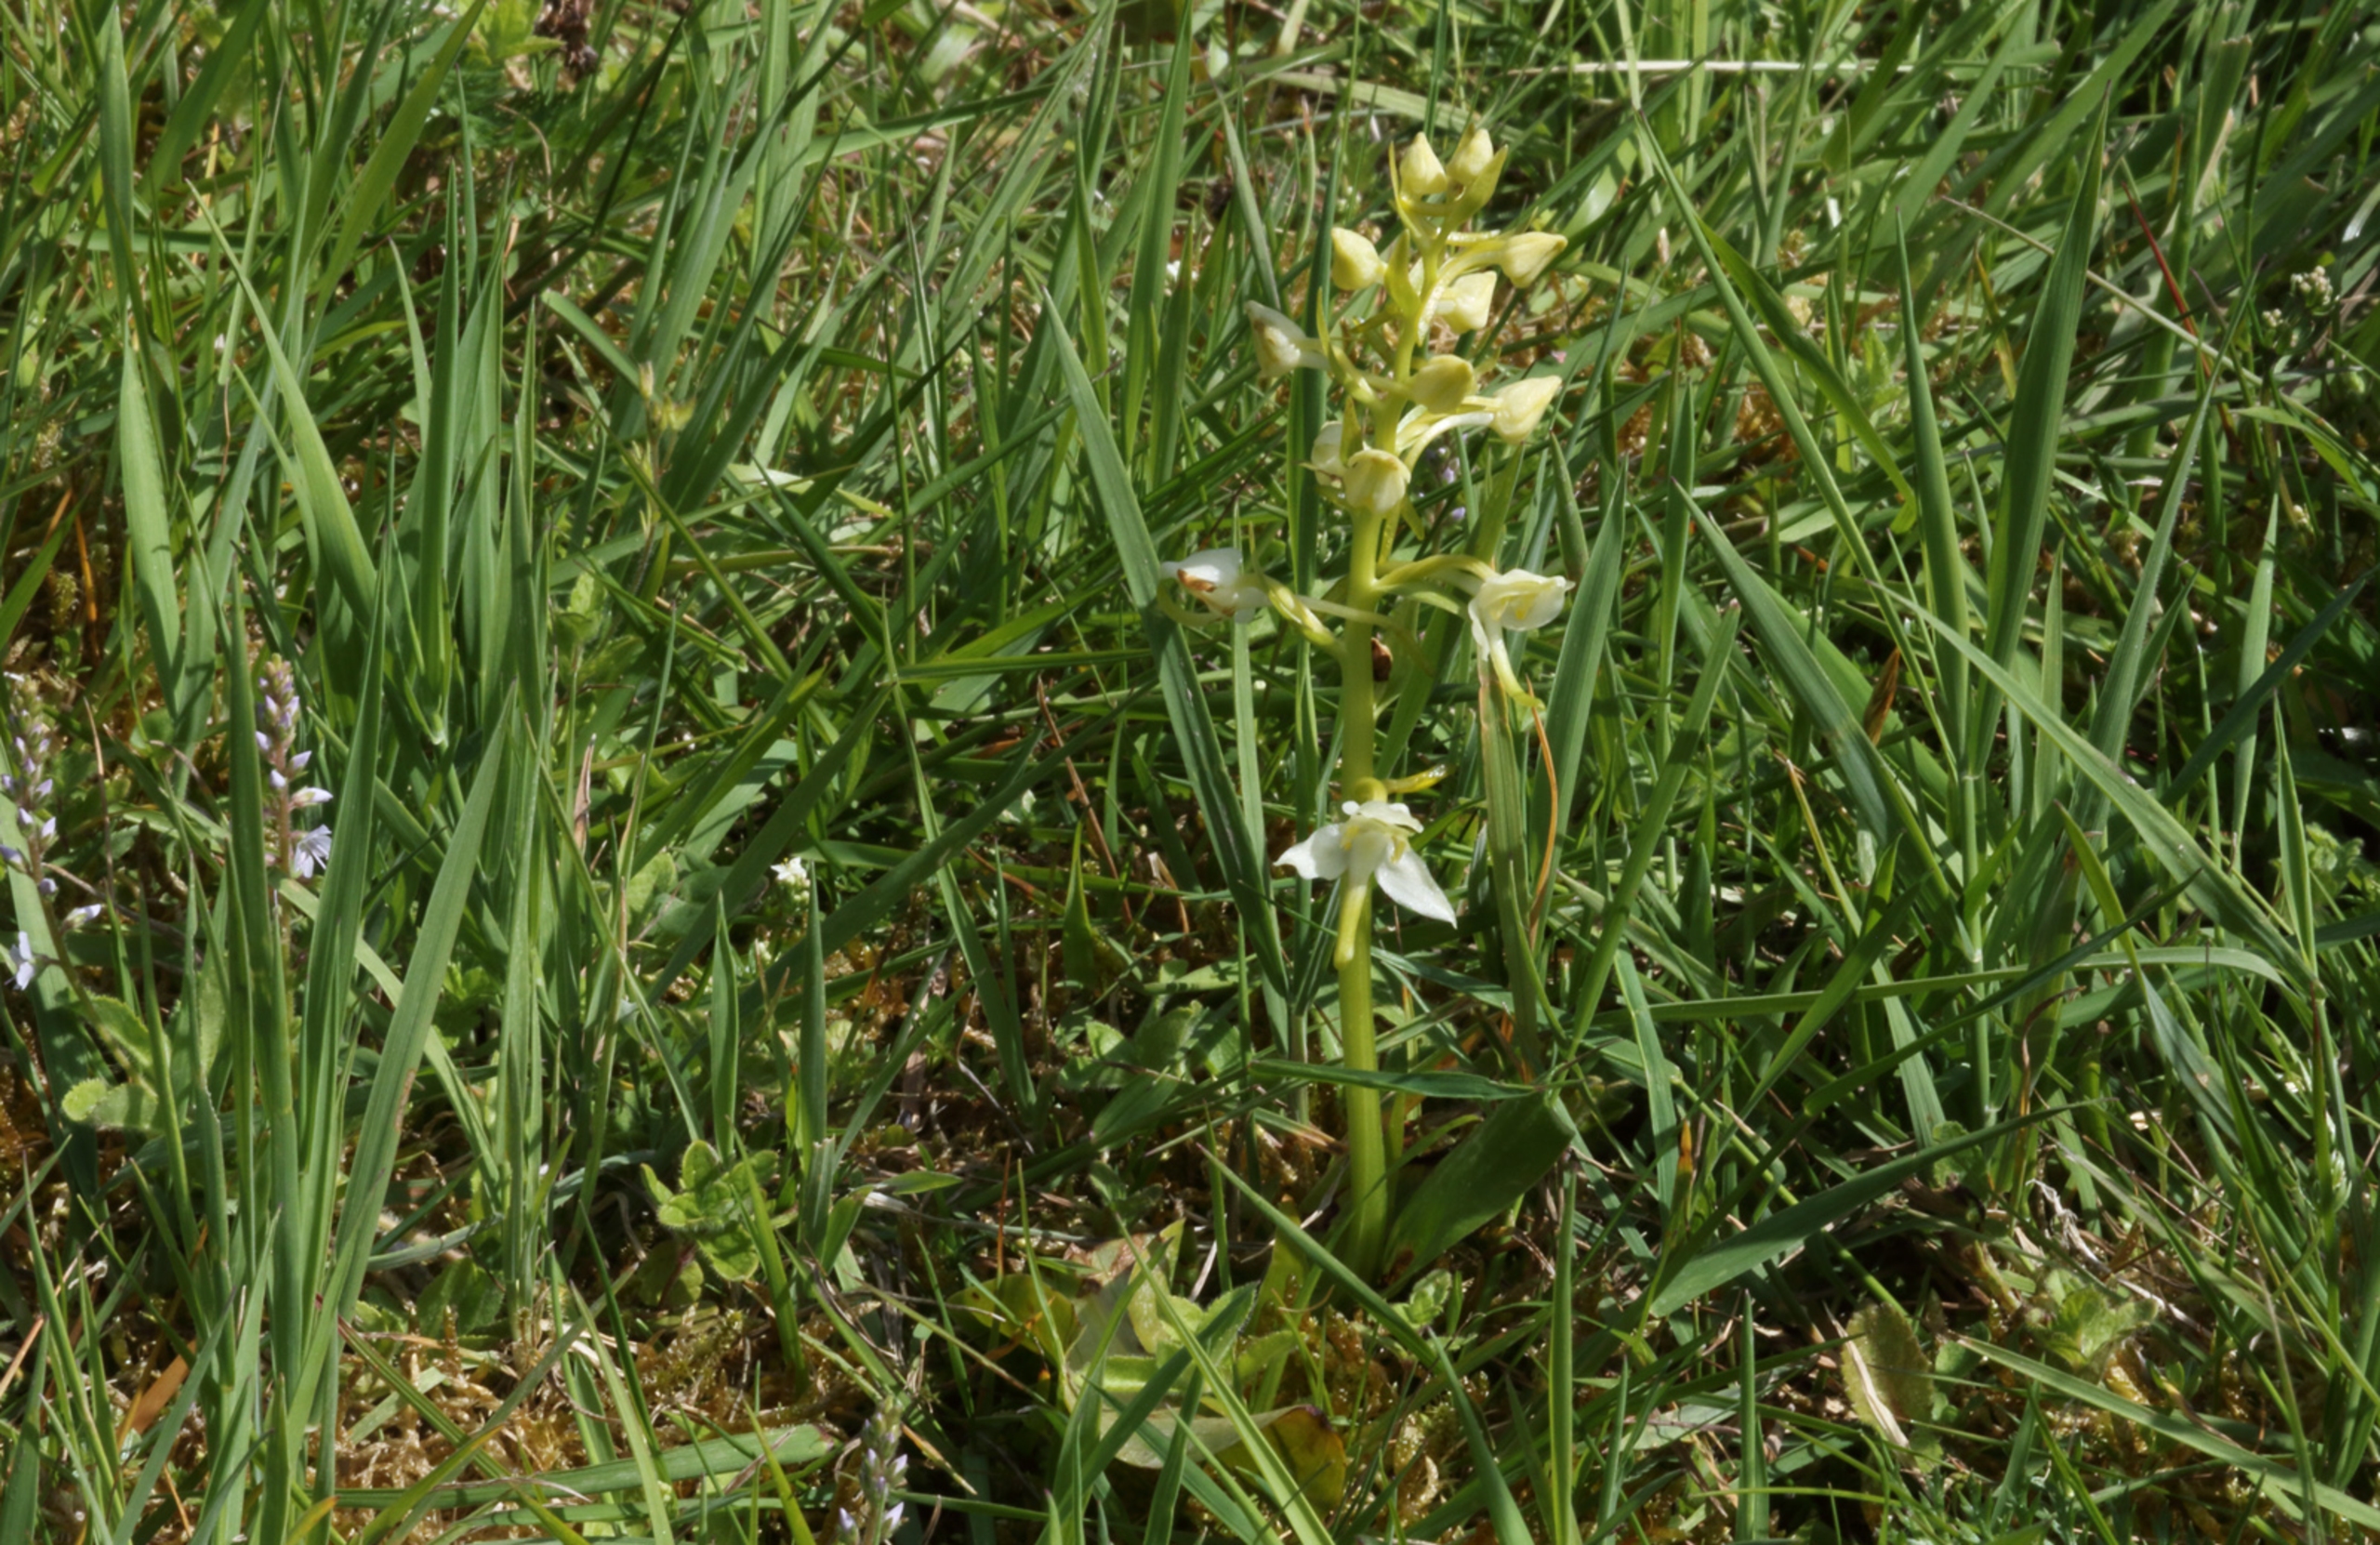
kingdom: Plantae
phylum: Tracheophyta
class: Liliopsida
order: Asparagales
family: Orchidaceae
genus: Platanthera
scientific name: Platanthera chlorantha
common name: Skov-gøgelilje
